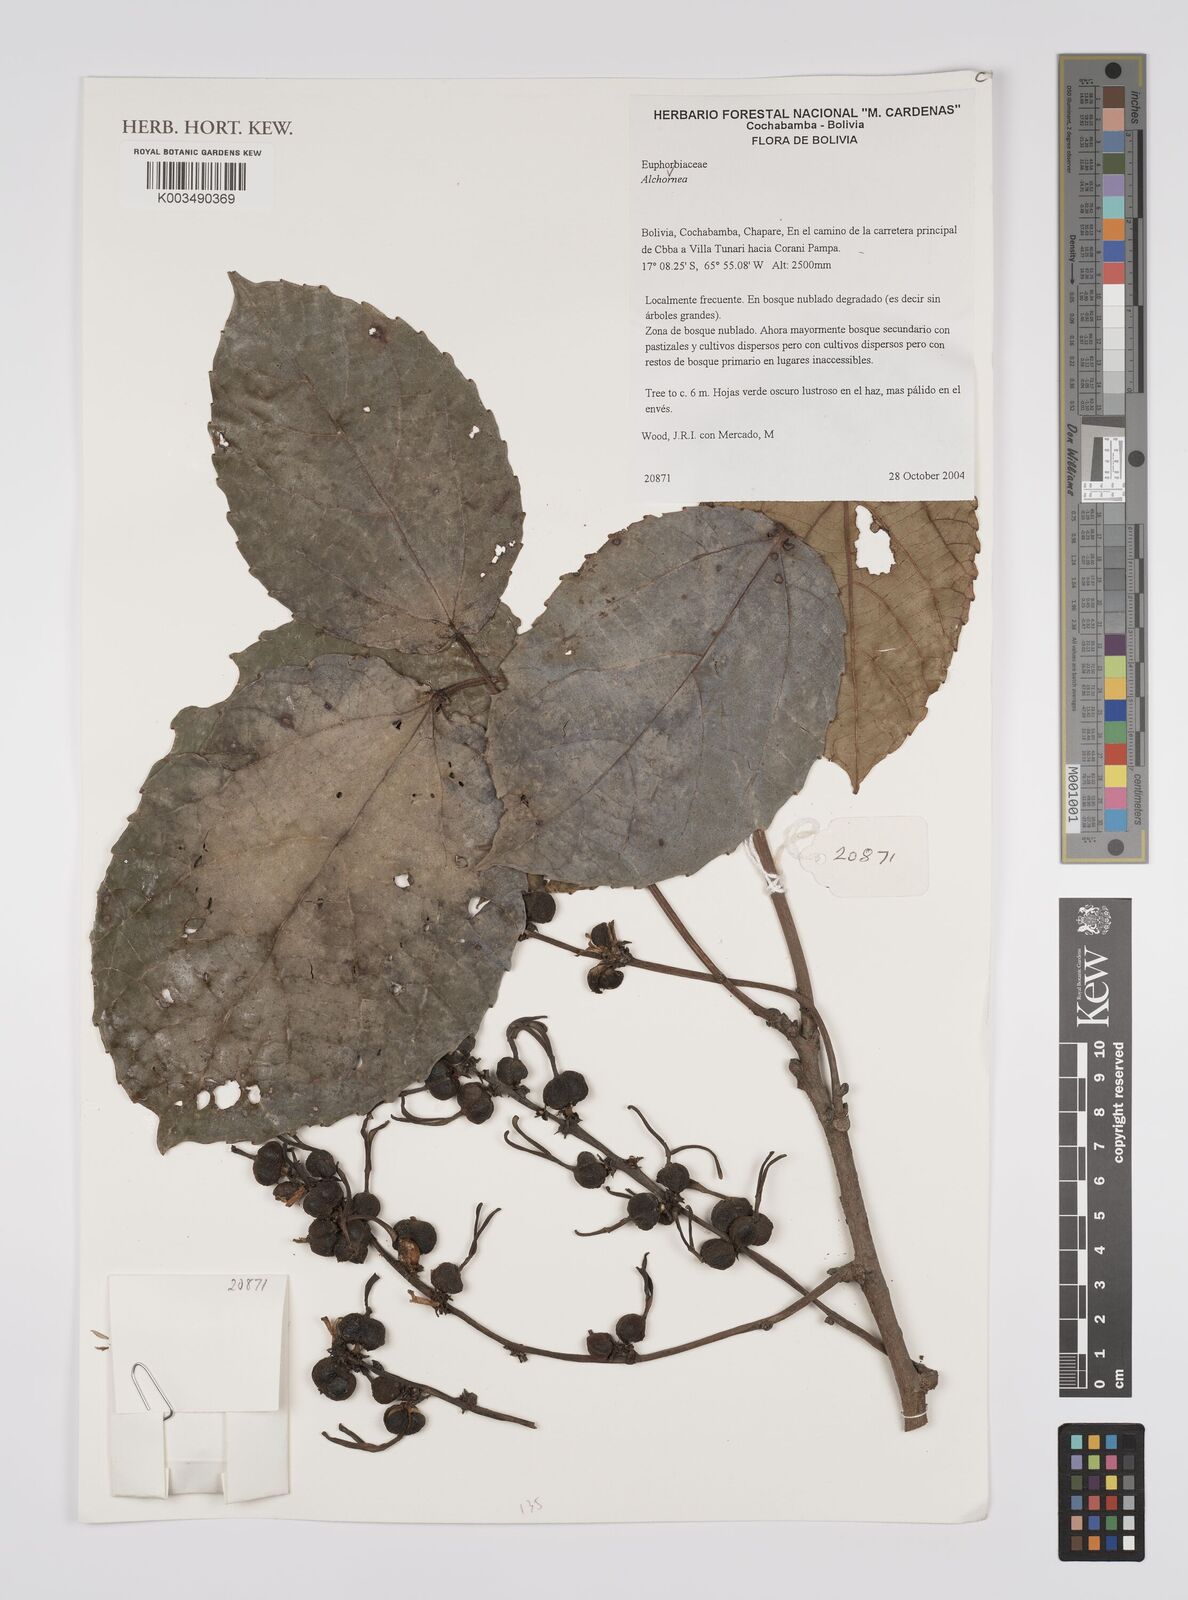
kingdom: Plantae
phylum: Tracheophyta
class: Magnoliopsida
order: Malpighiales
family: Euphorbiaceae
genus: Alchornea
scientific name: Alchornea
